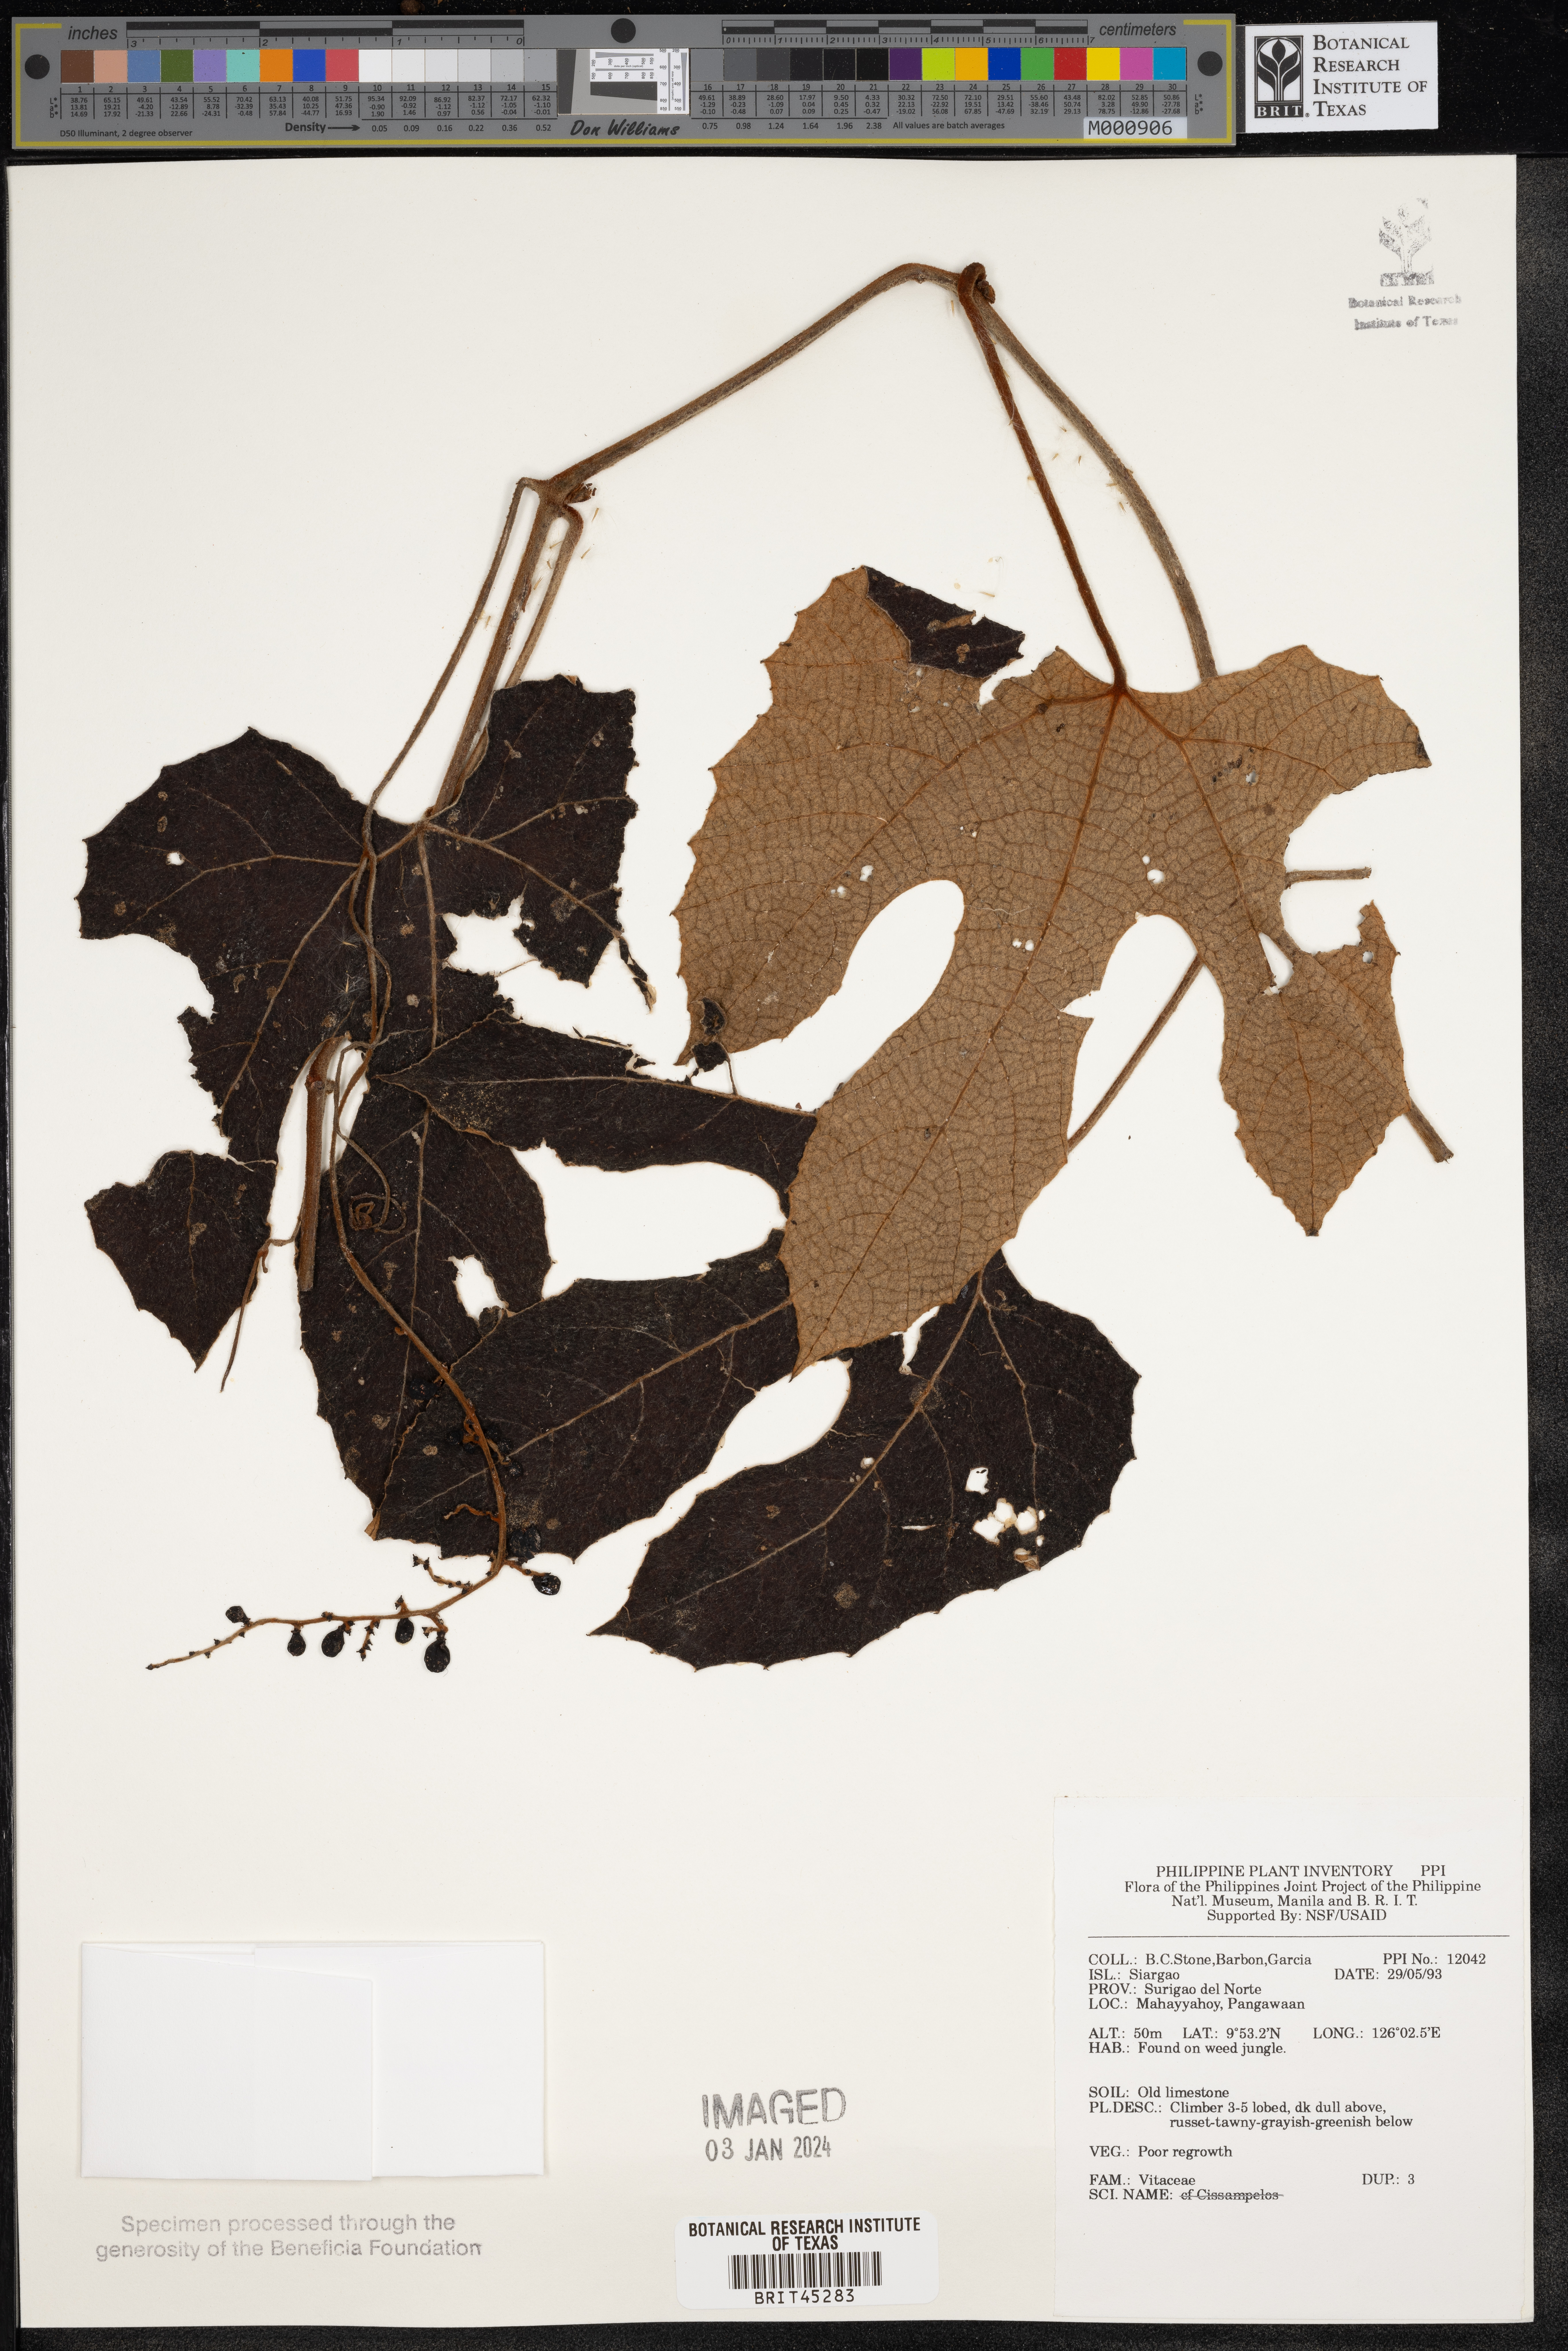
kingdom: Plantae
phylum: Tracheophyta
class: Magnoliopsida
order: Vitales
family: Vitaceae
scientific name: Vitaceae
